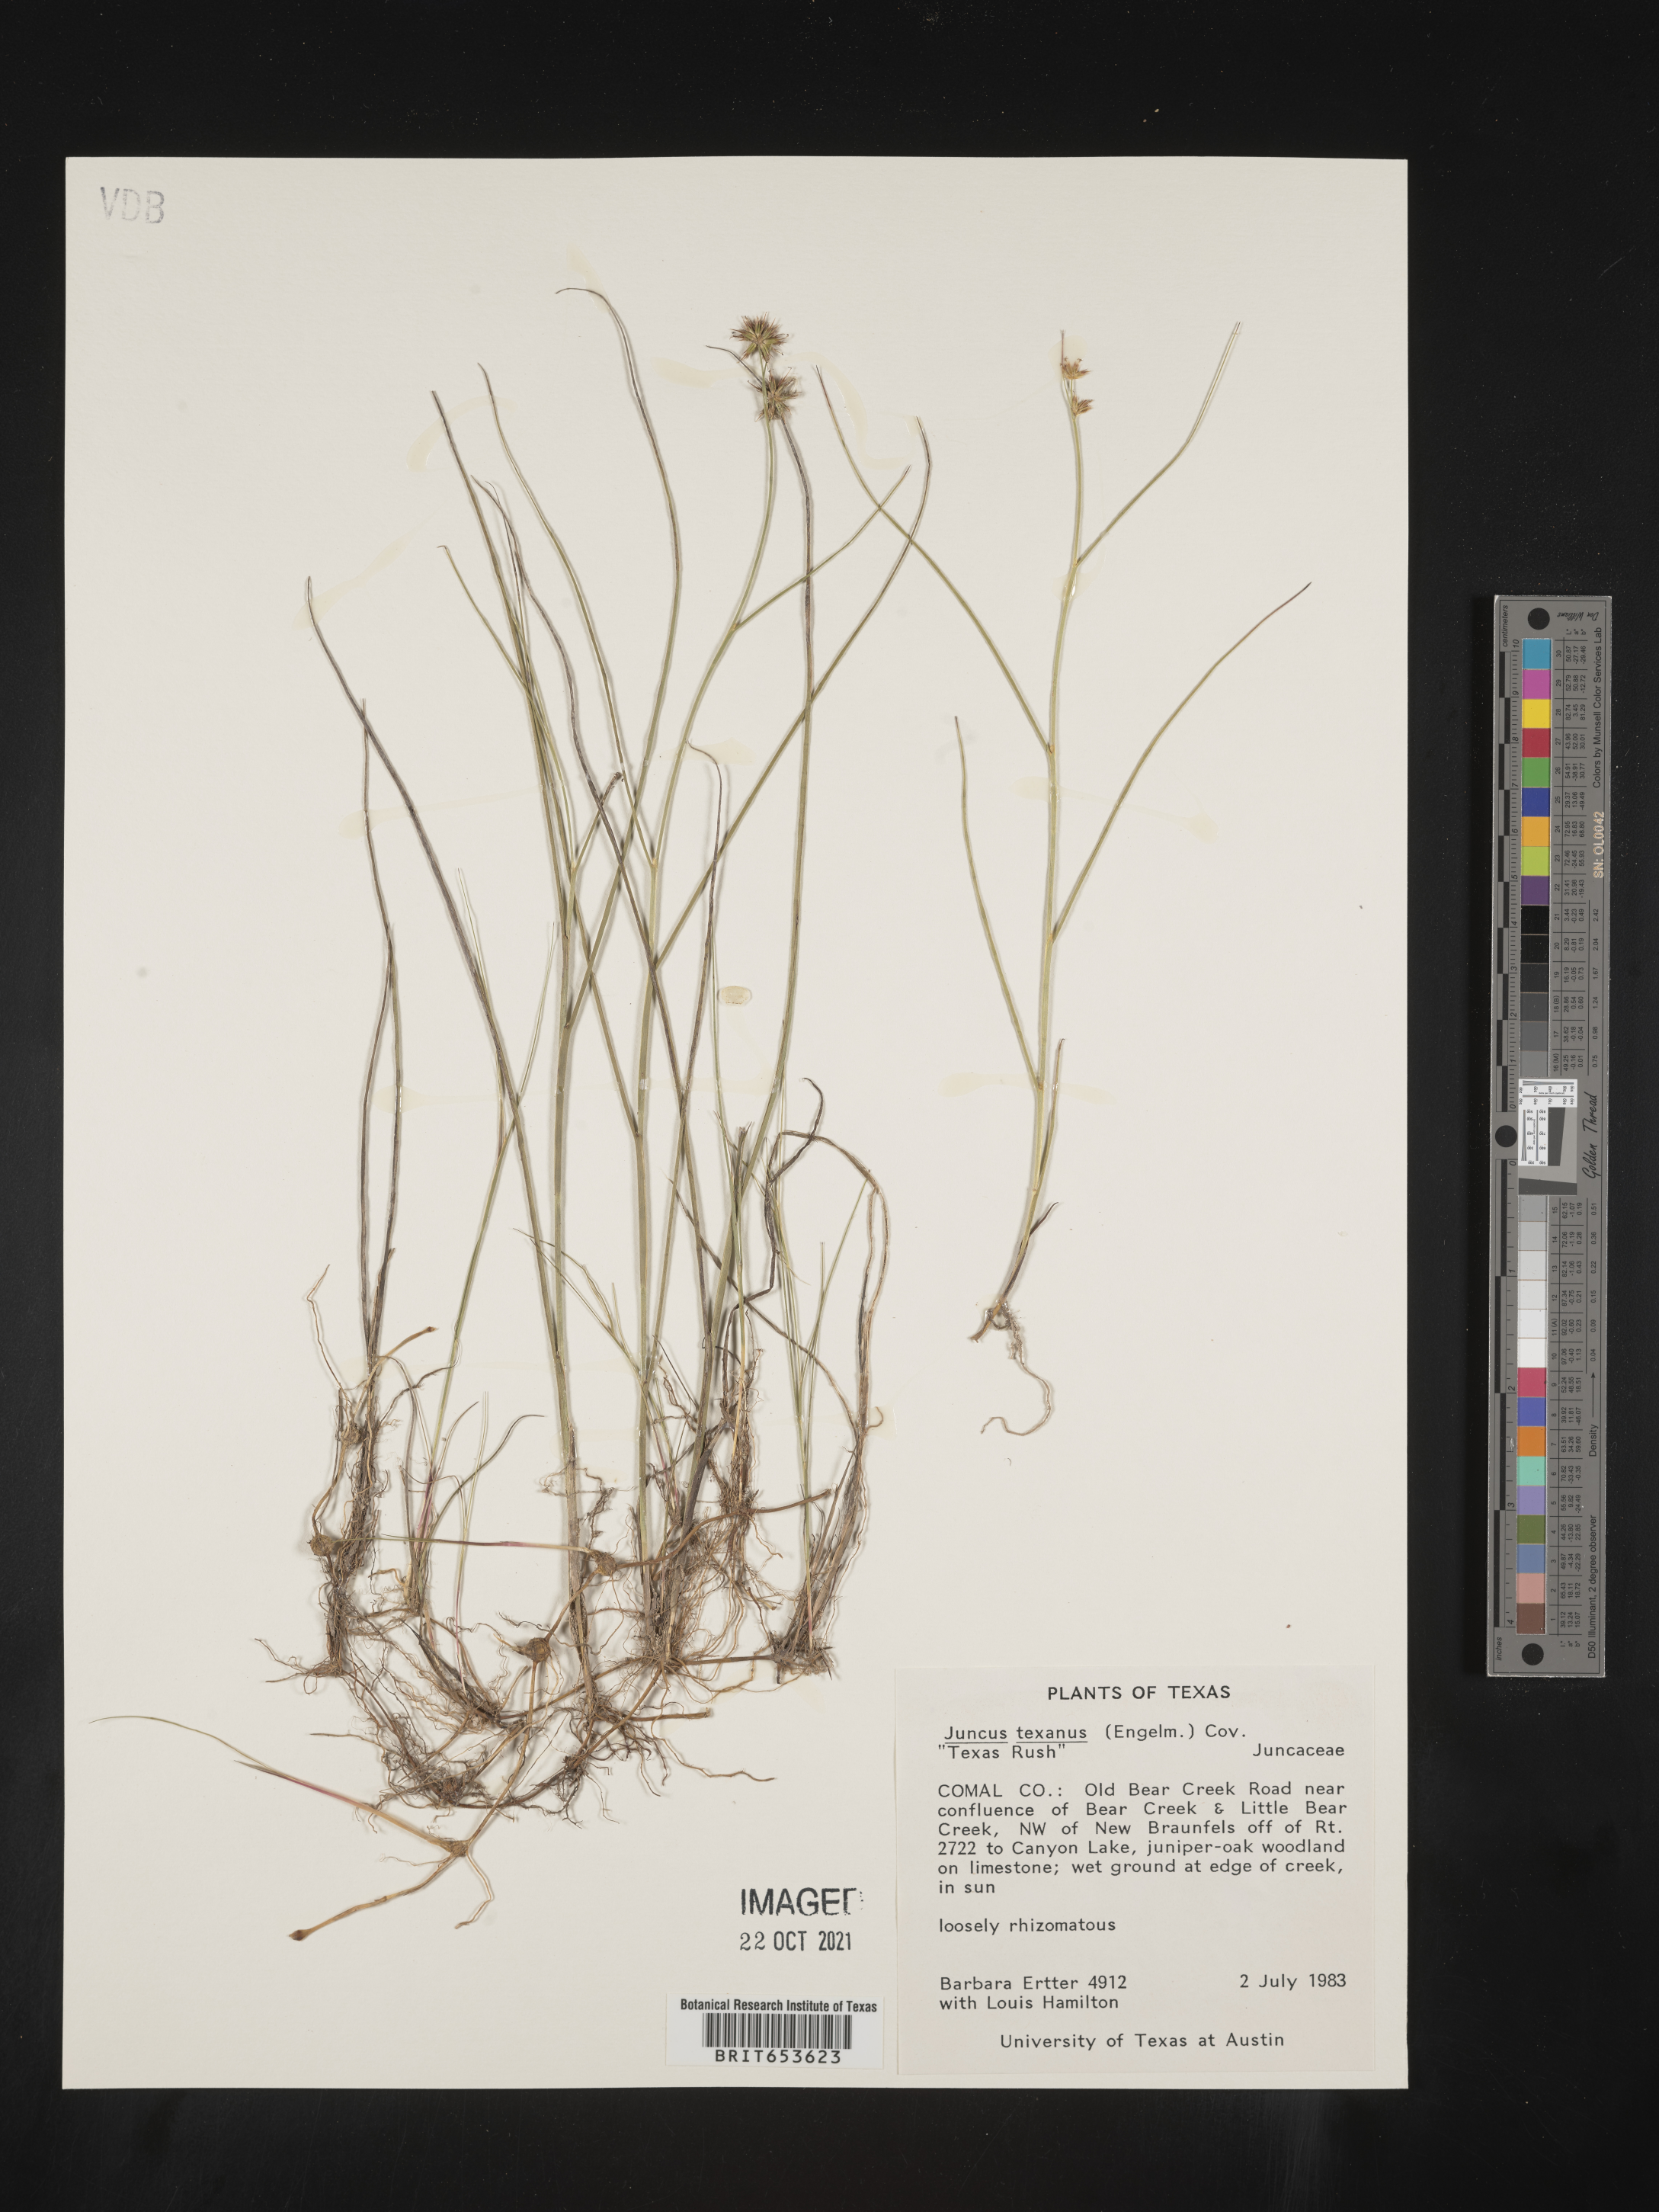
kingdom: Plantae
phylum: Tracheophyta
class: Liliopsida
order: Poales
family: Juncaceae
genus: Juncus
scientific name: Juncus texanus
